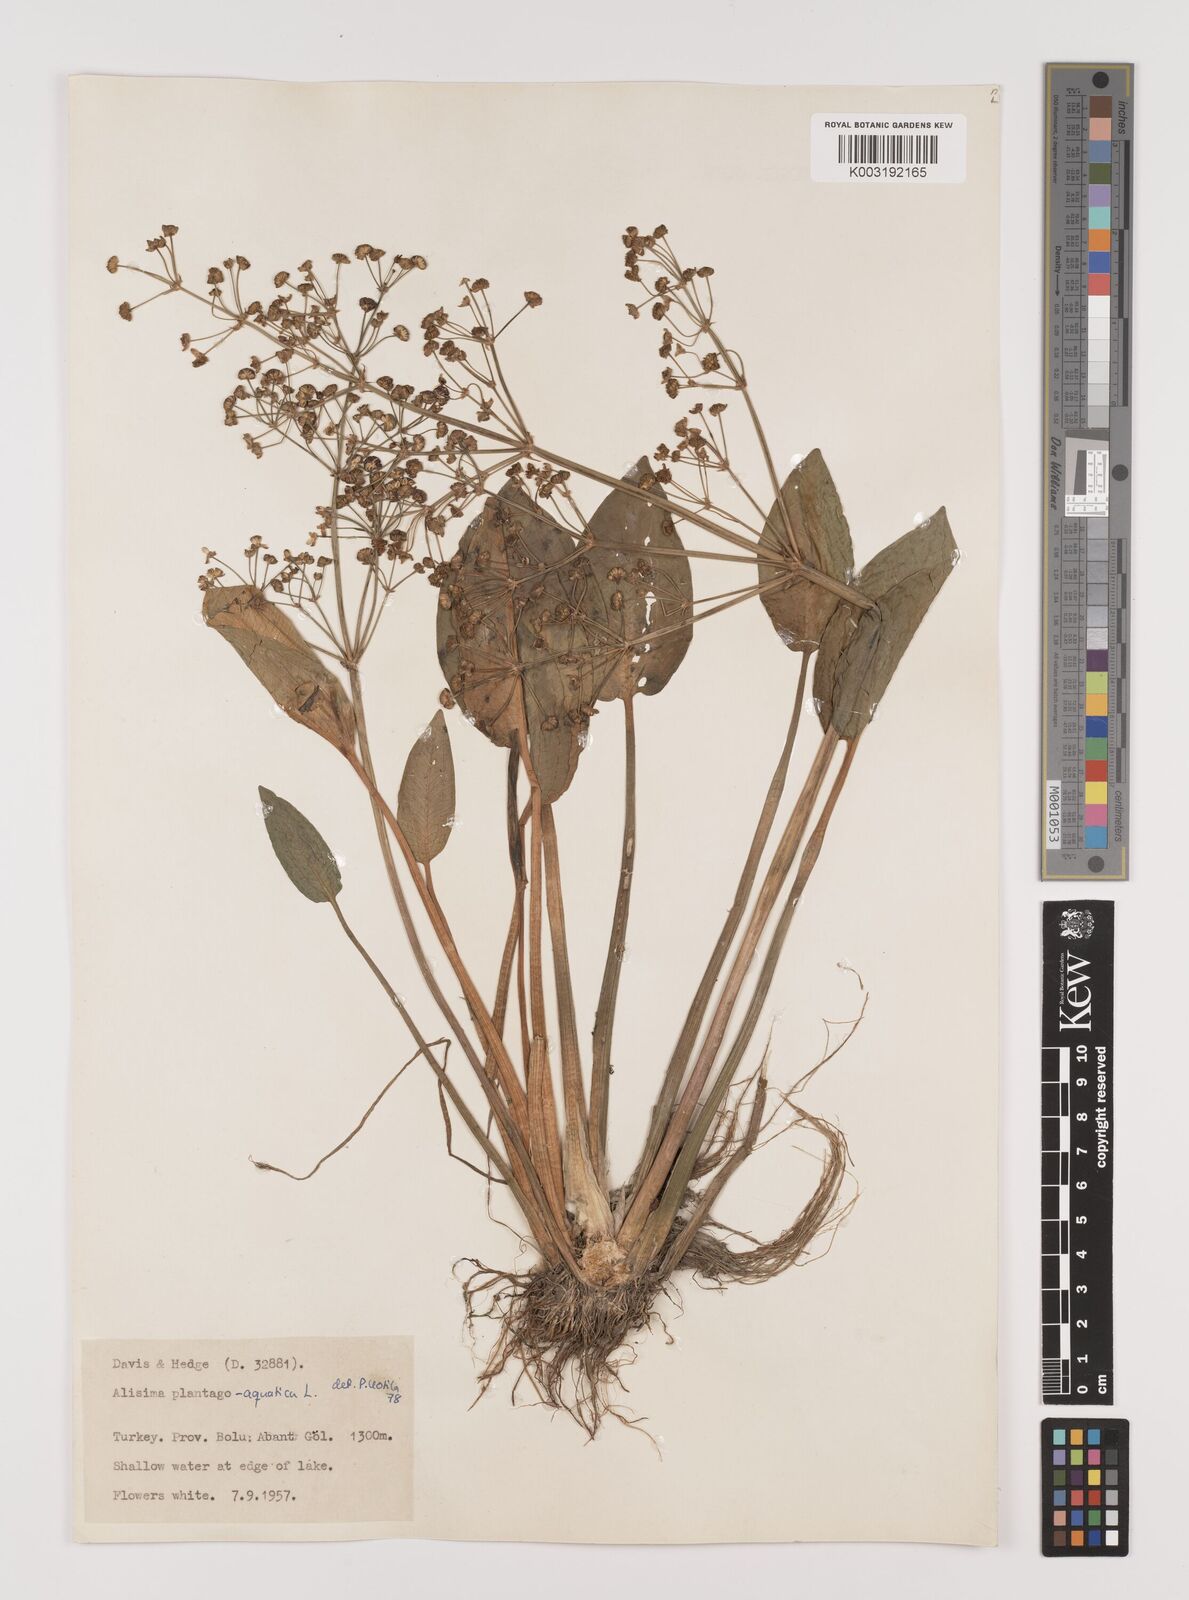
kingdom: Plantae
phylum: Tracheophyta
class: Liliopsida
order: Alismatales
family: Alismataceae
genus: Alisma
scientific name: Alisma plantago-aquatica
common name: Water-plantain
